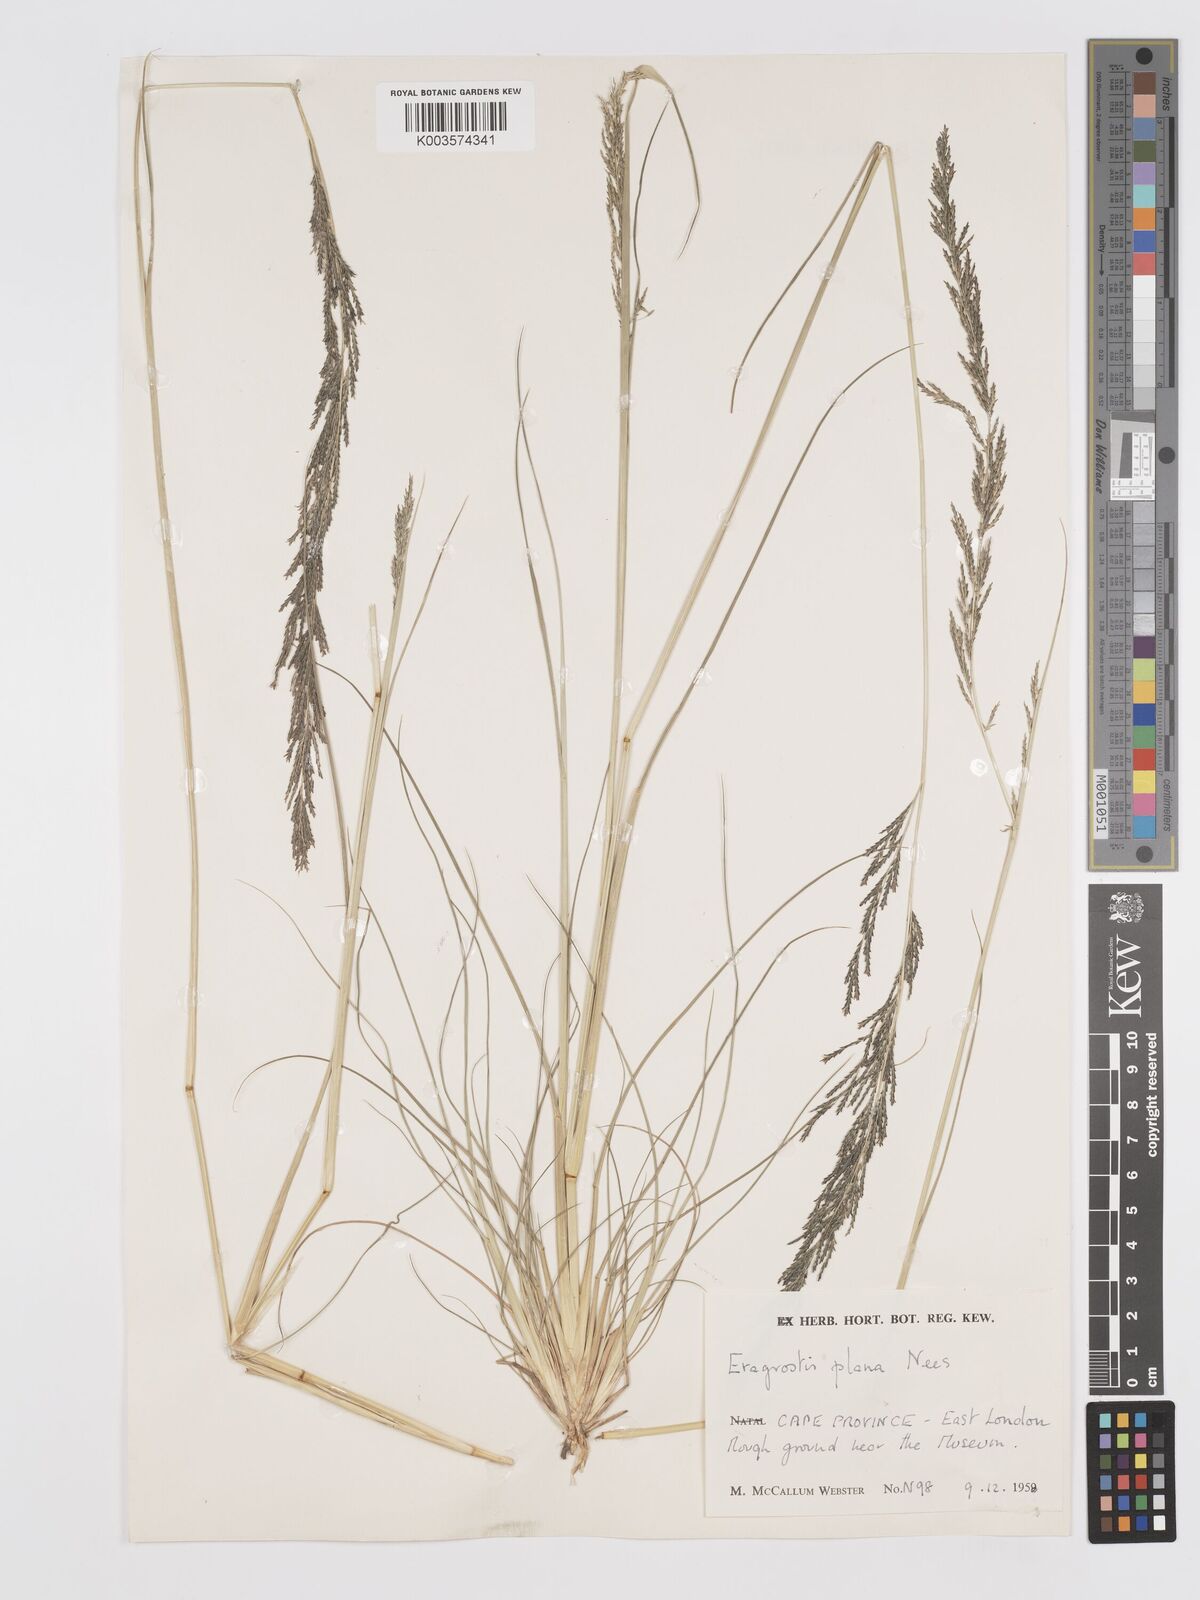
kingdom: Plantae
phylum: Tracheophyta
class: Liliopsida
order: Poales
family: Poaceae
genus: Eragrostis
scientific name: Eragrostis plana
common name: South african lovegrass
